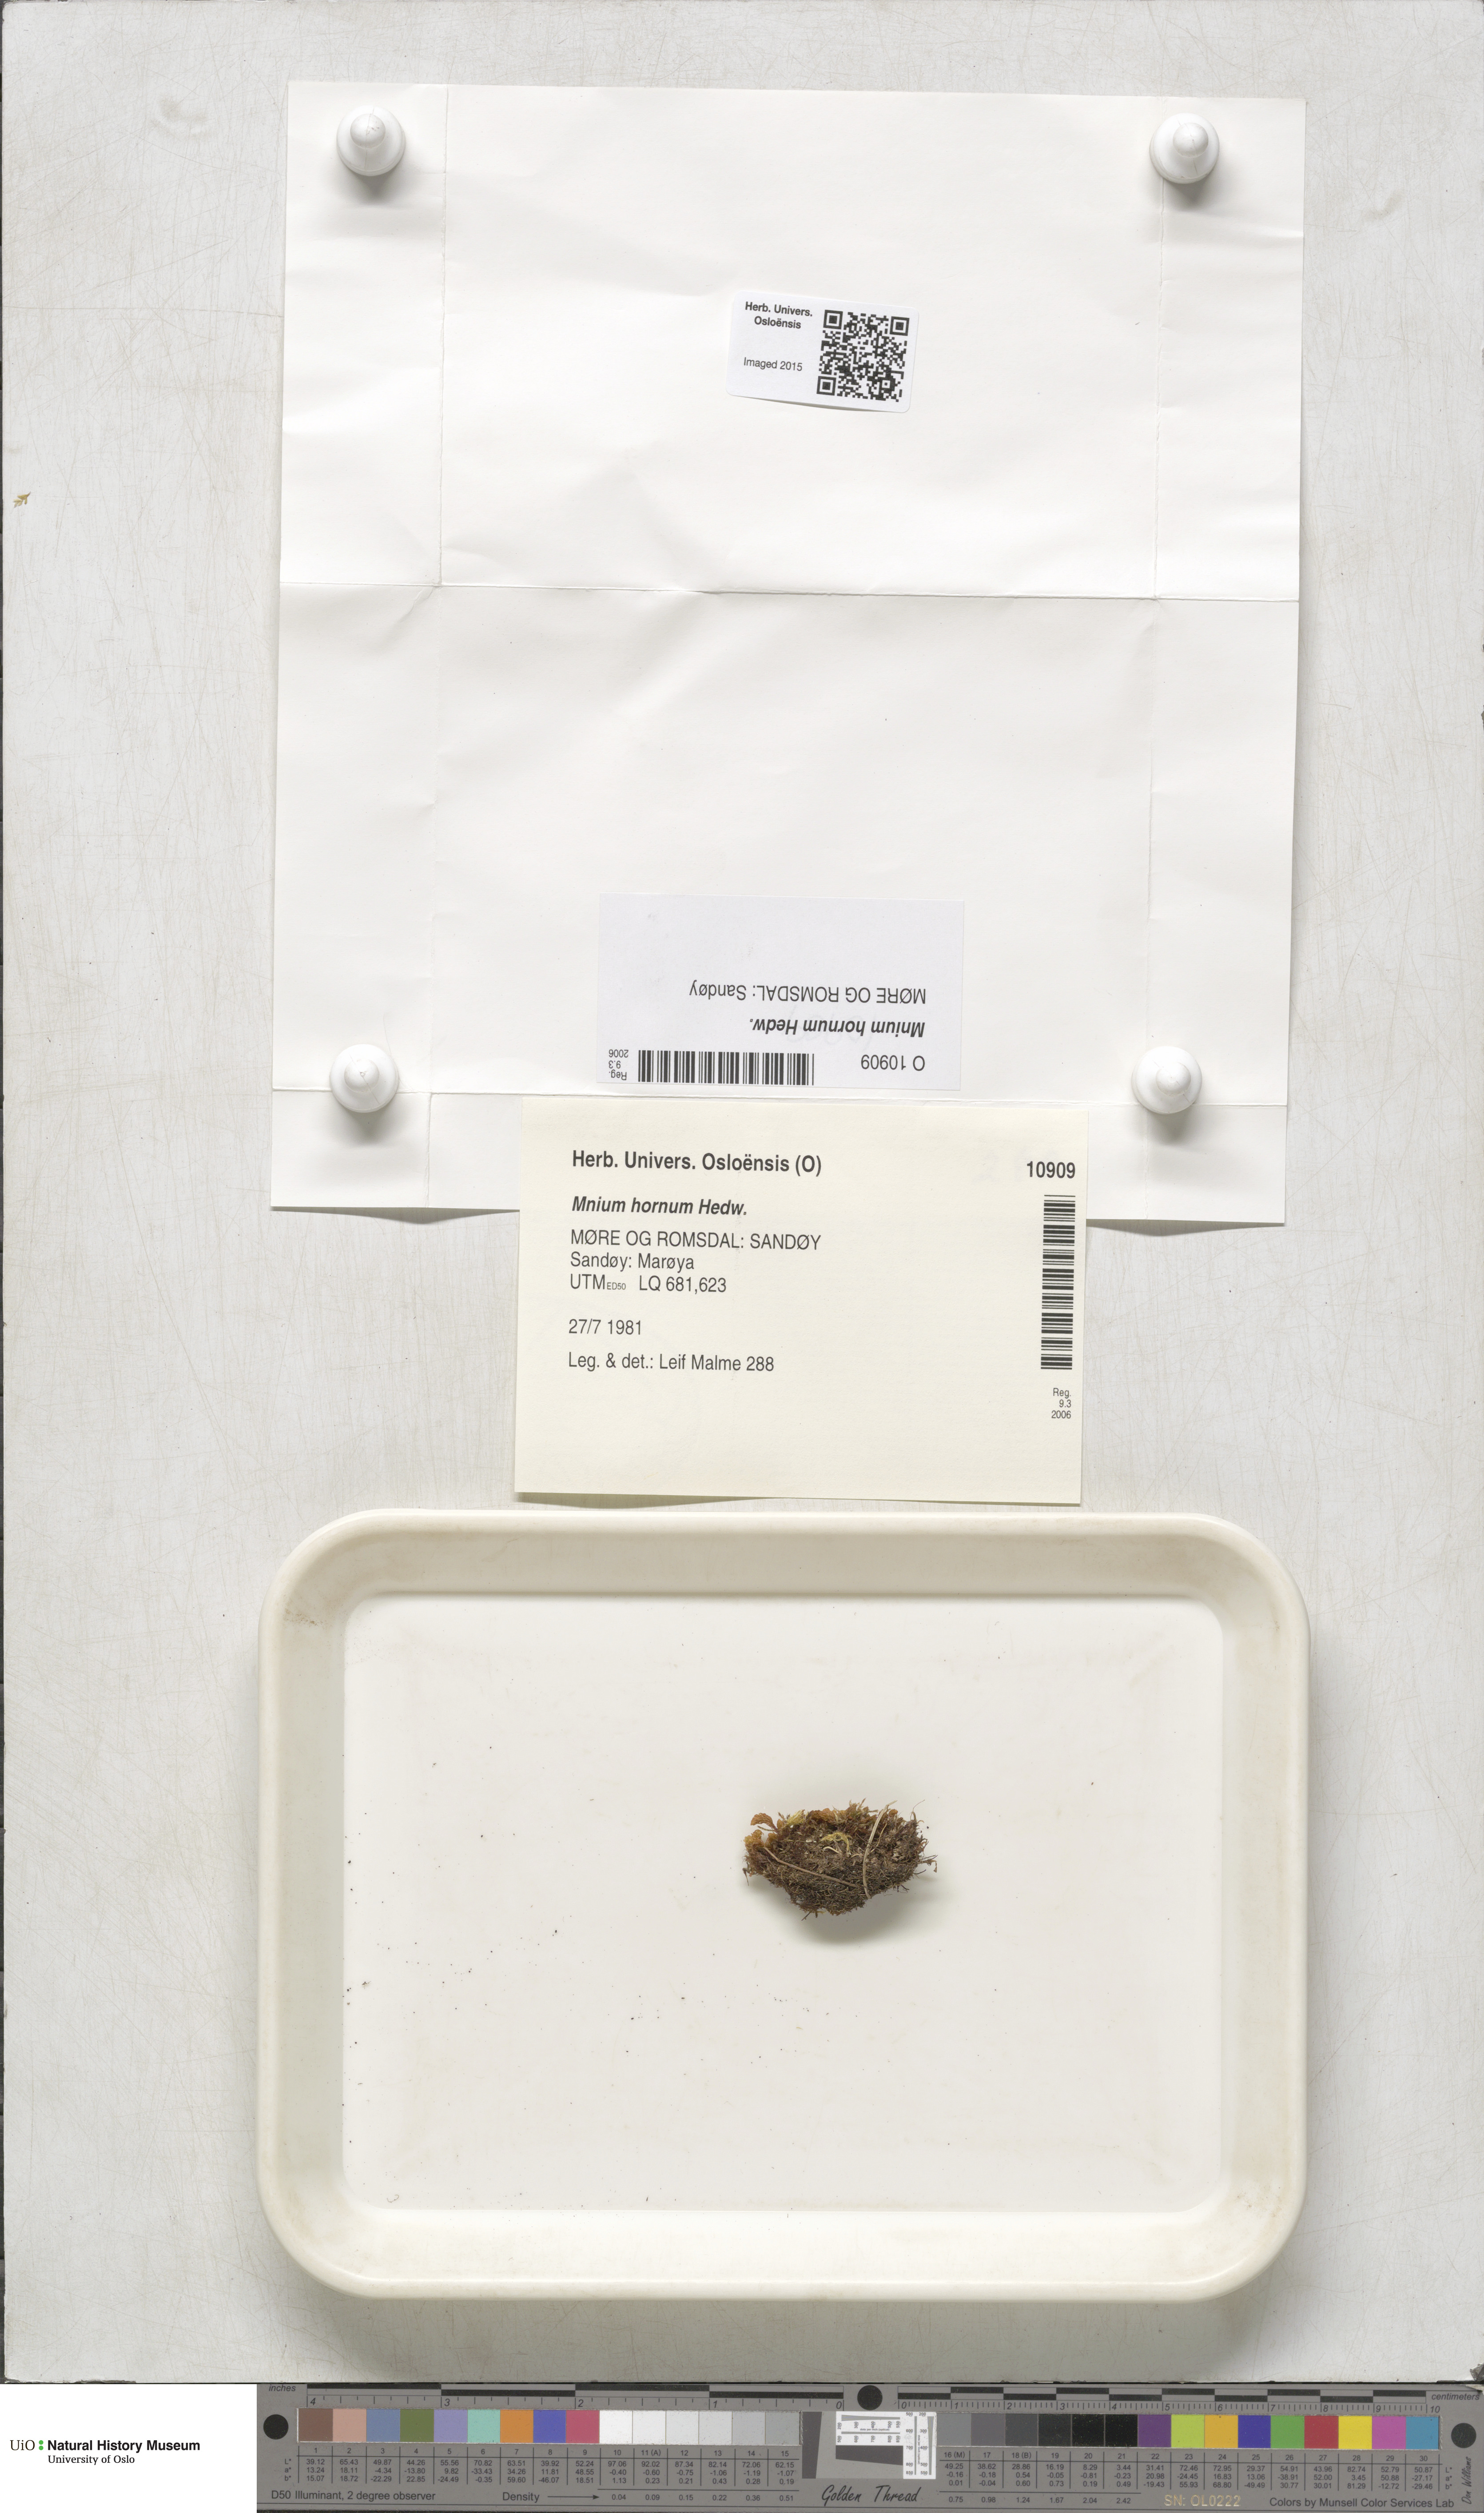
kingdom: Plantae
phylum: Bryophyta
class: Bryopsida
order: Bryales
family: Mniaceae
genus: Mnium
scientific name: Mnium hornum
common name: Swan's-neck leafy moss
